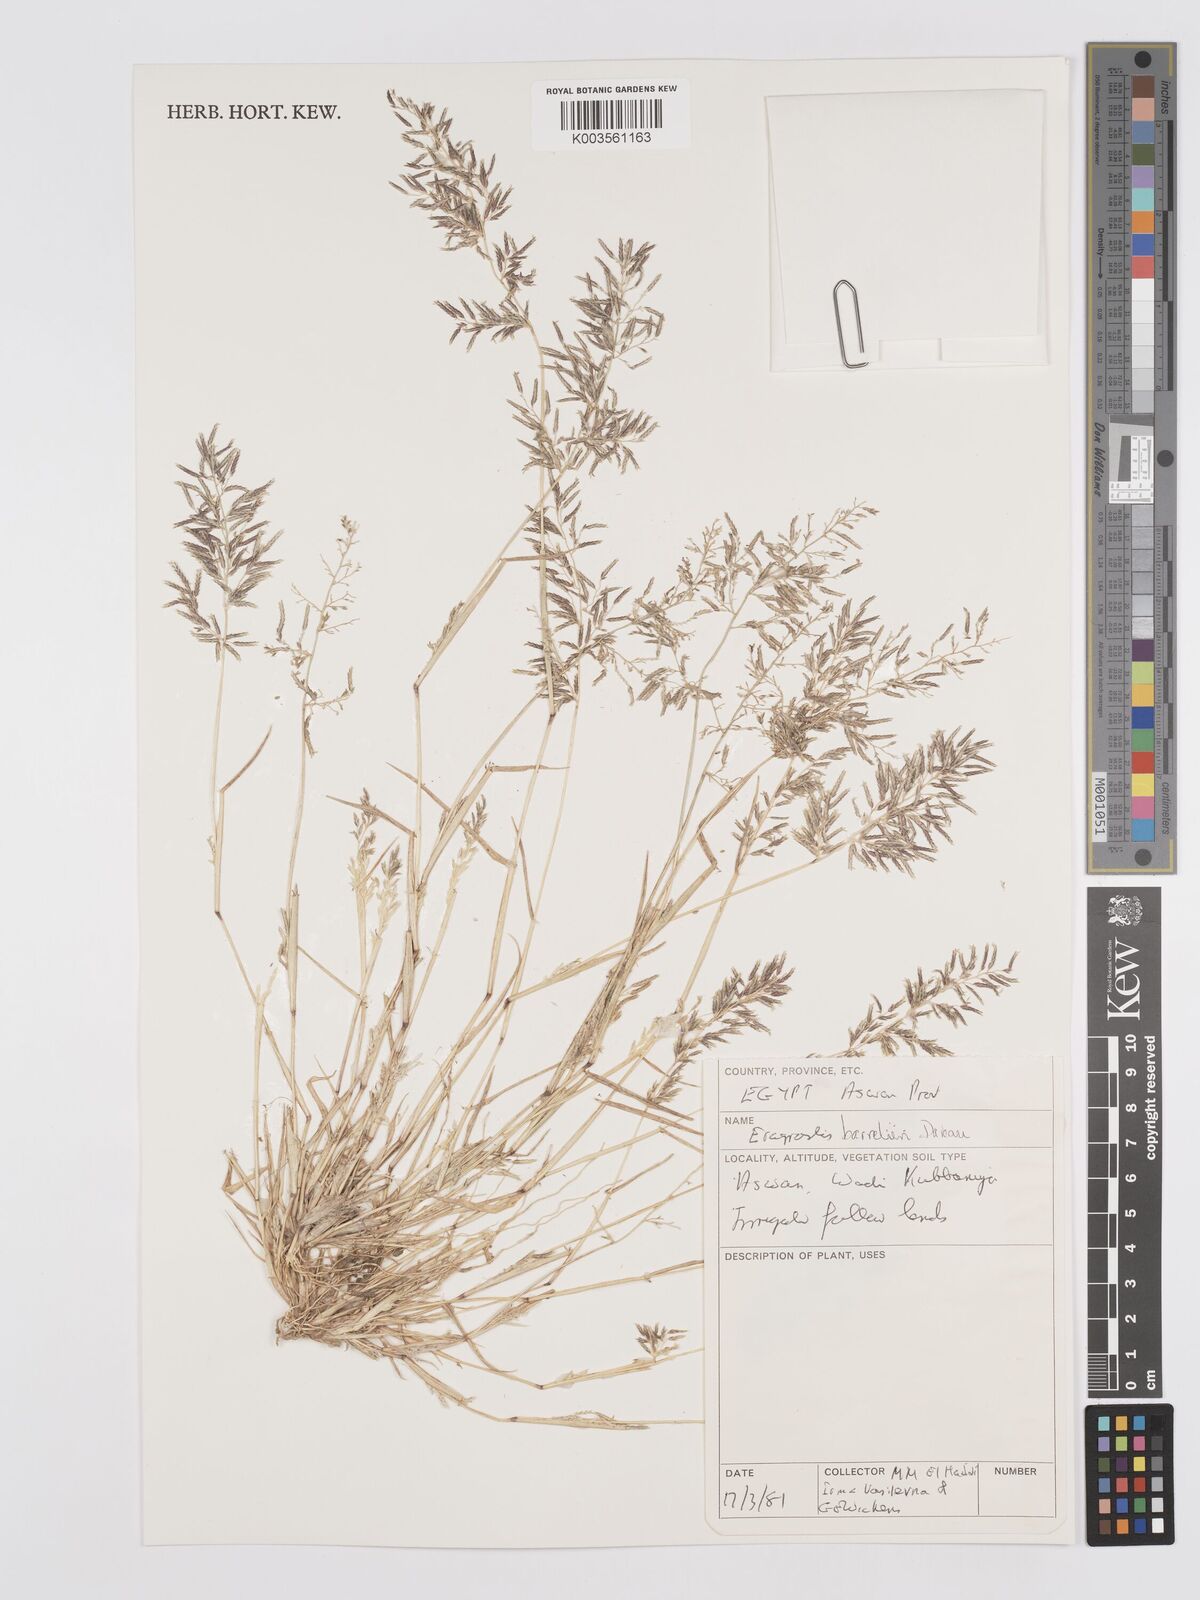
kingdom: Plantae
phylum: Tracheophyta
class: Liliopsida
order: Poales
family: Poaceae
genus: Eragrostis
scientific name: Eragrostis barrelieri
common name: Mediterranean lovegrass
